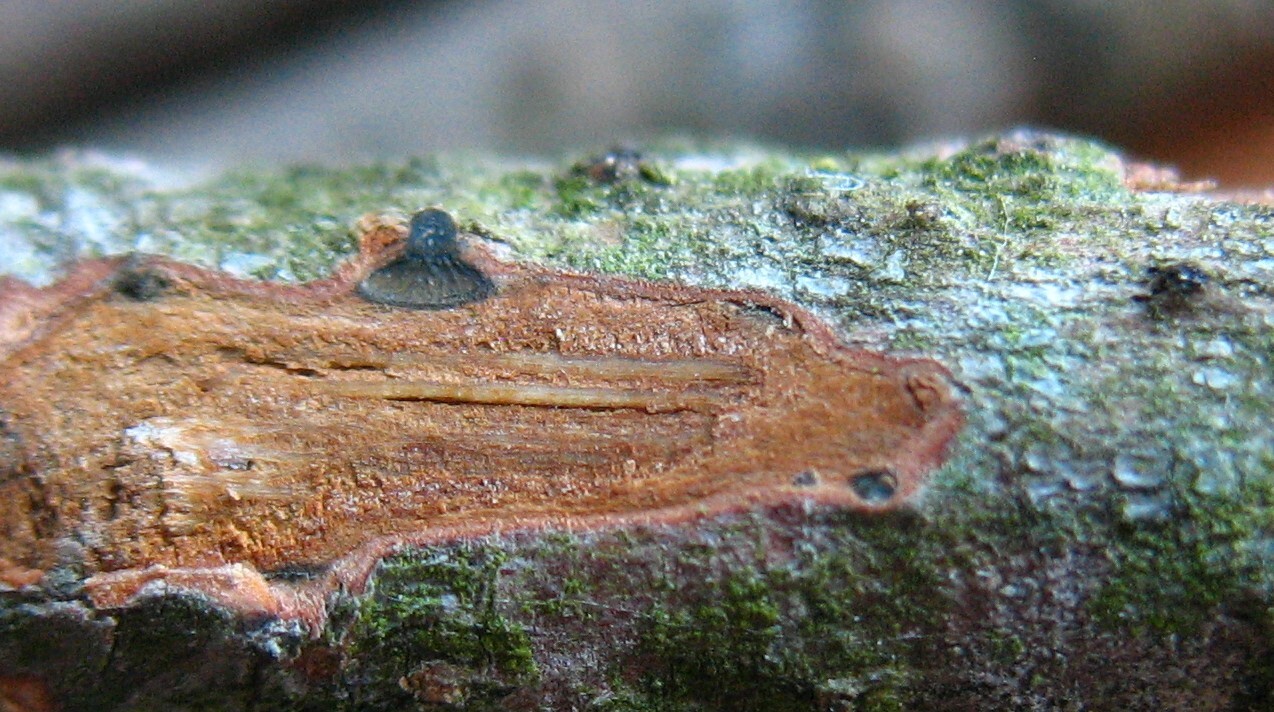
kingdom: Fungi
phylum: Ascomycota
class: Sordariomycetes
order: Diaporthales
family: Valsaceae
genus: Cytospora
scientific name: Cytospora sorbicola
